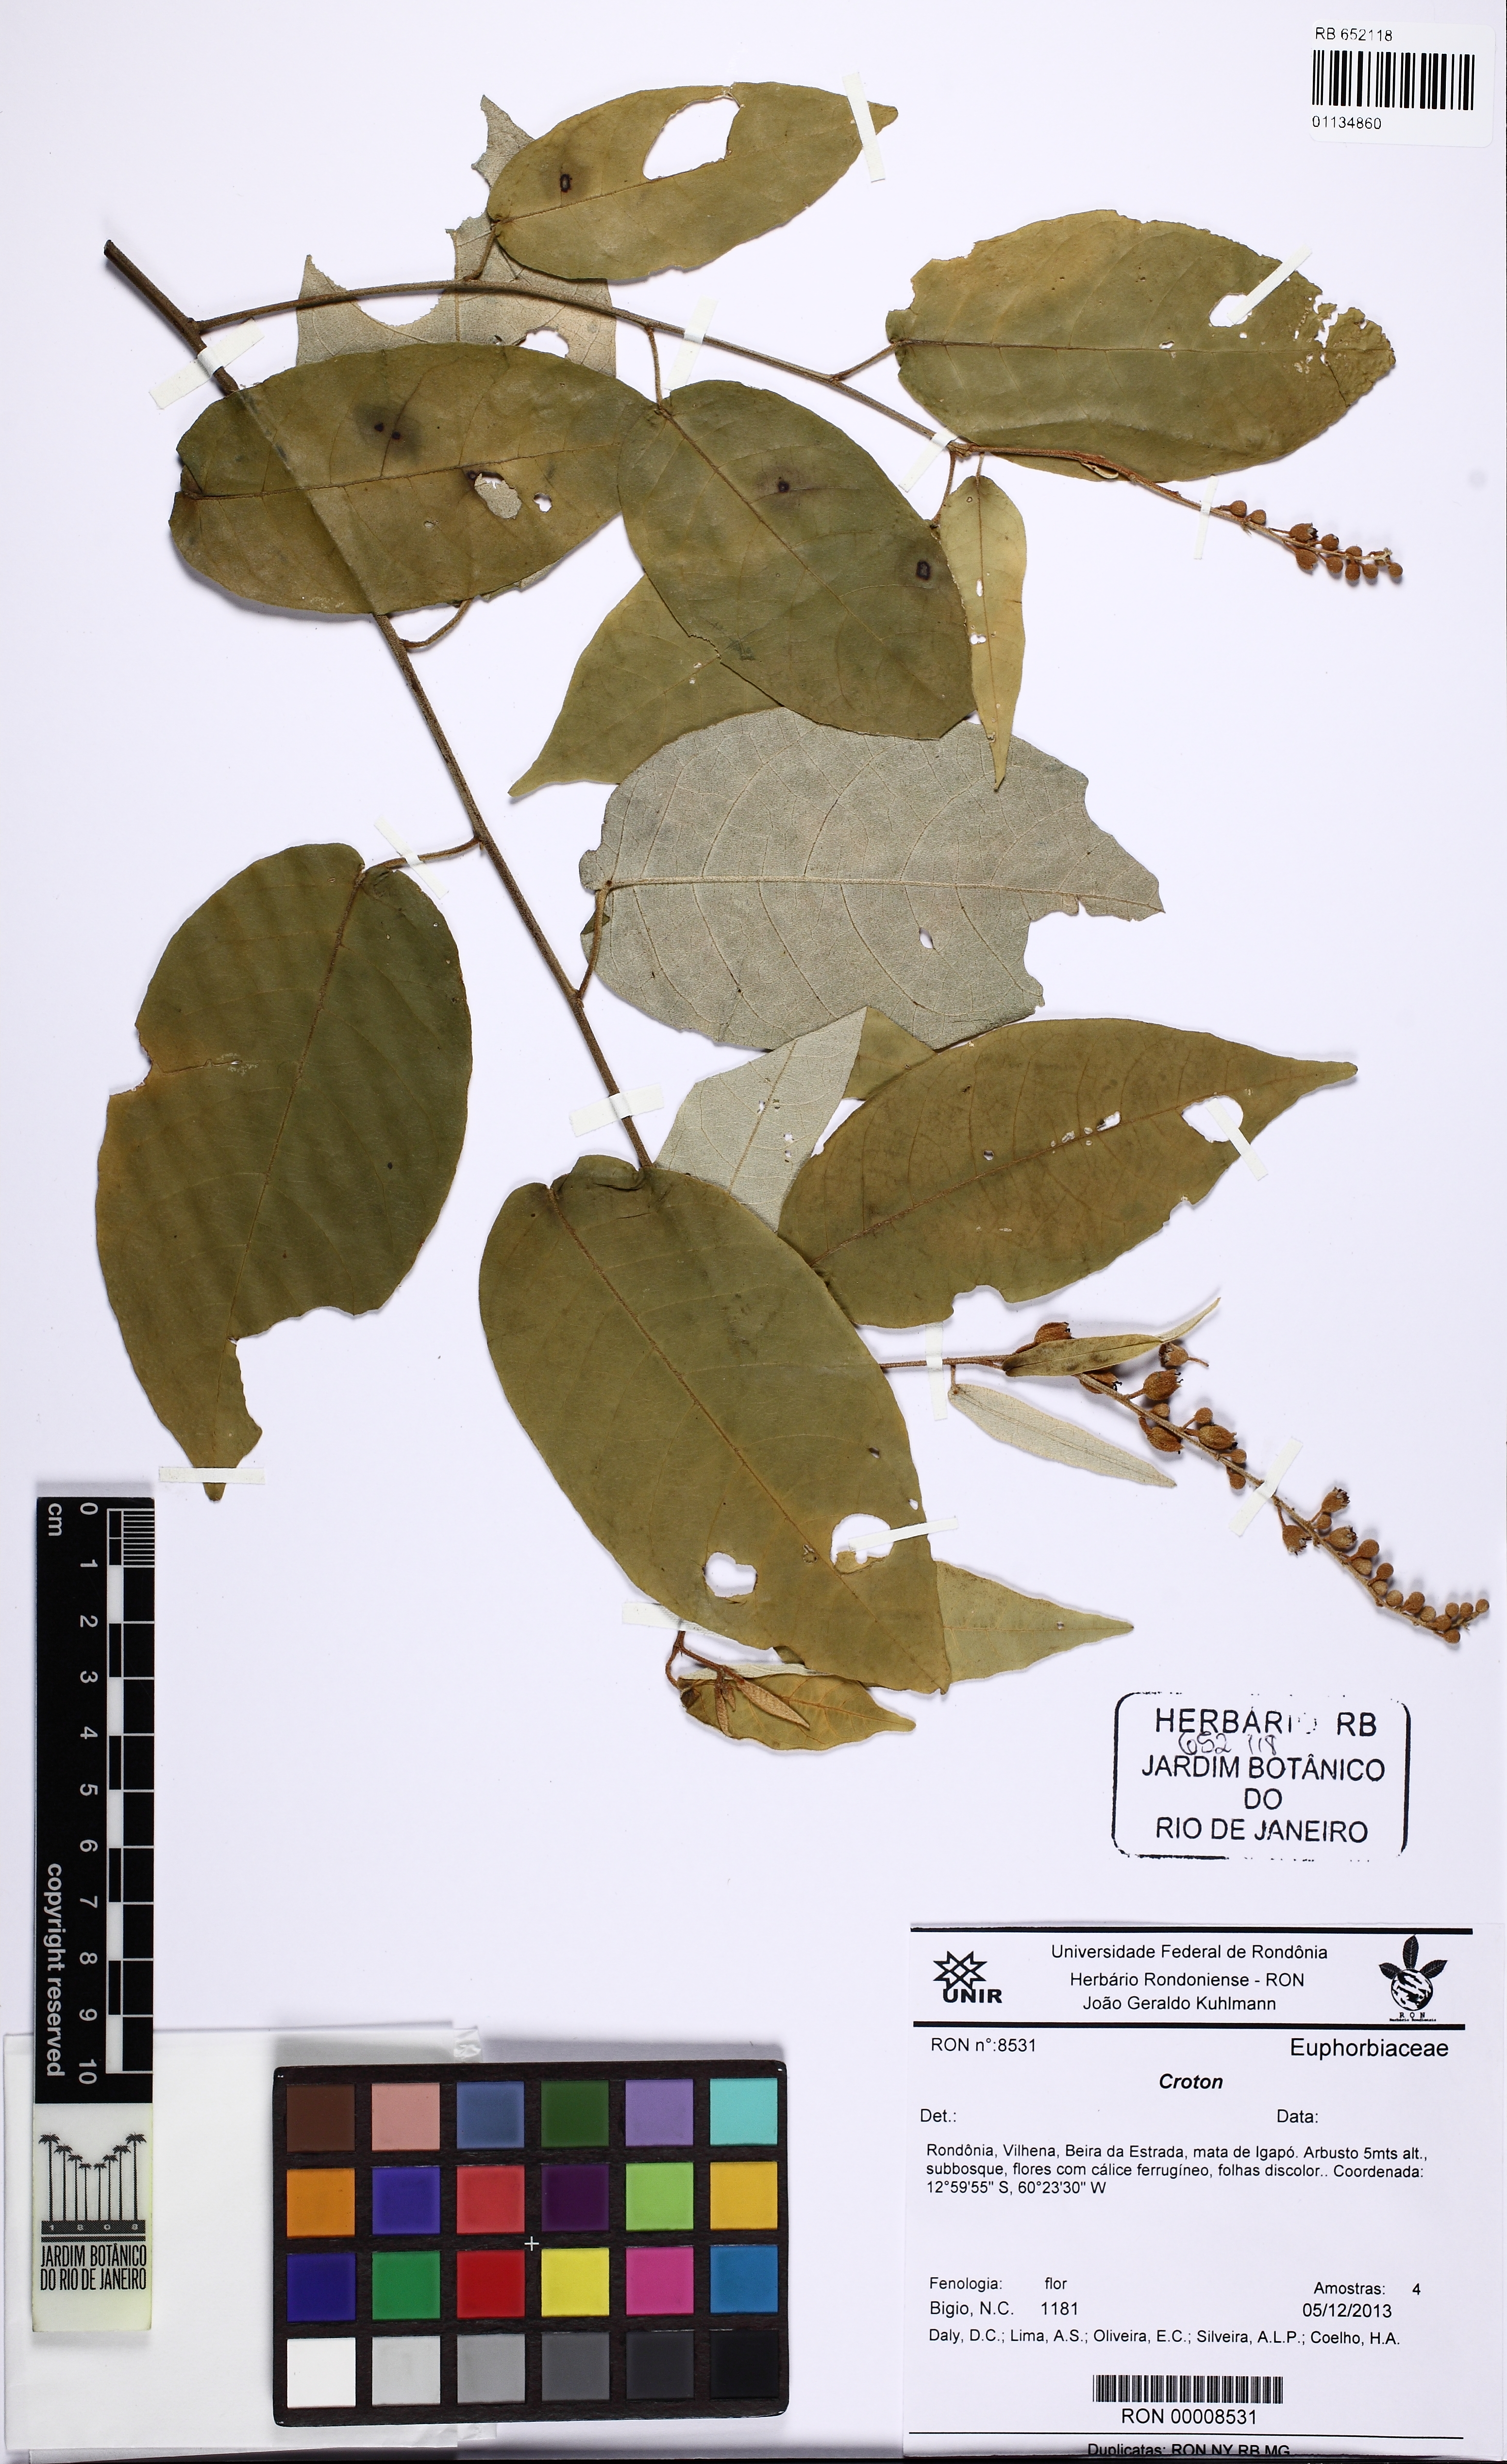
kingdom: Plantae
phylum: Tracheophyta
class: Magnoliopsida
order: Malpighiales
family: Euphorbiaceae
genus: Croton
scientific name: Croton spruceanus
